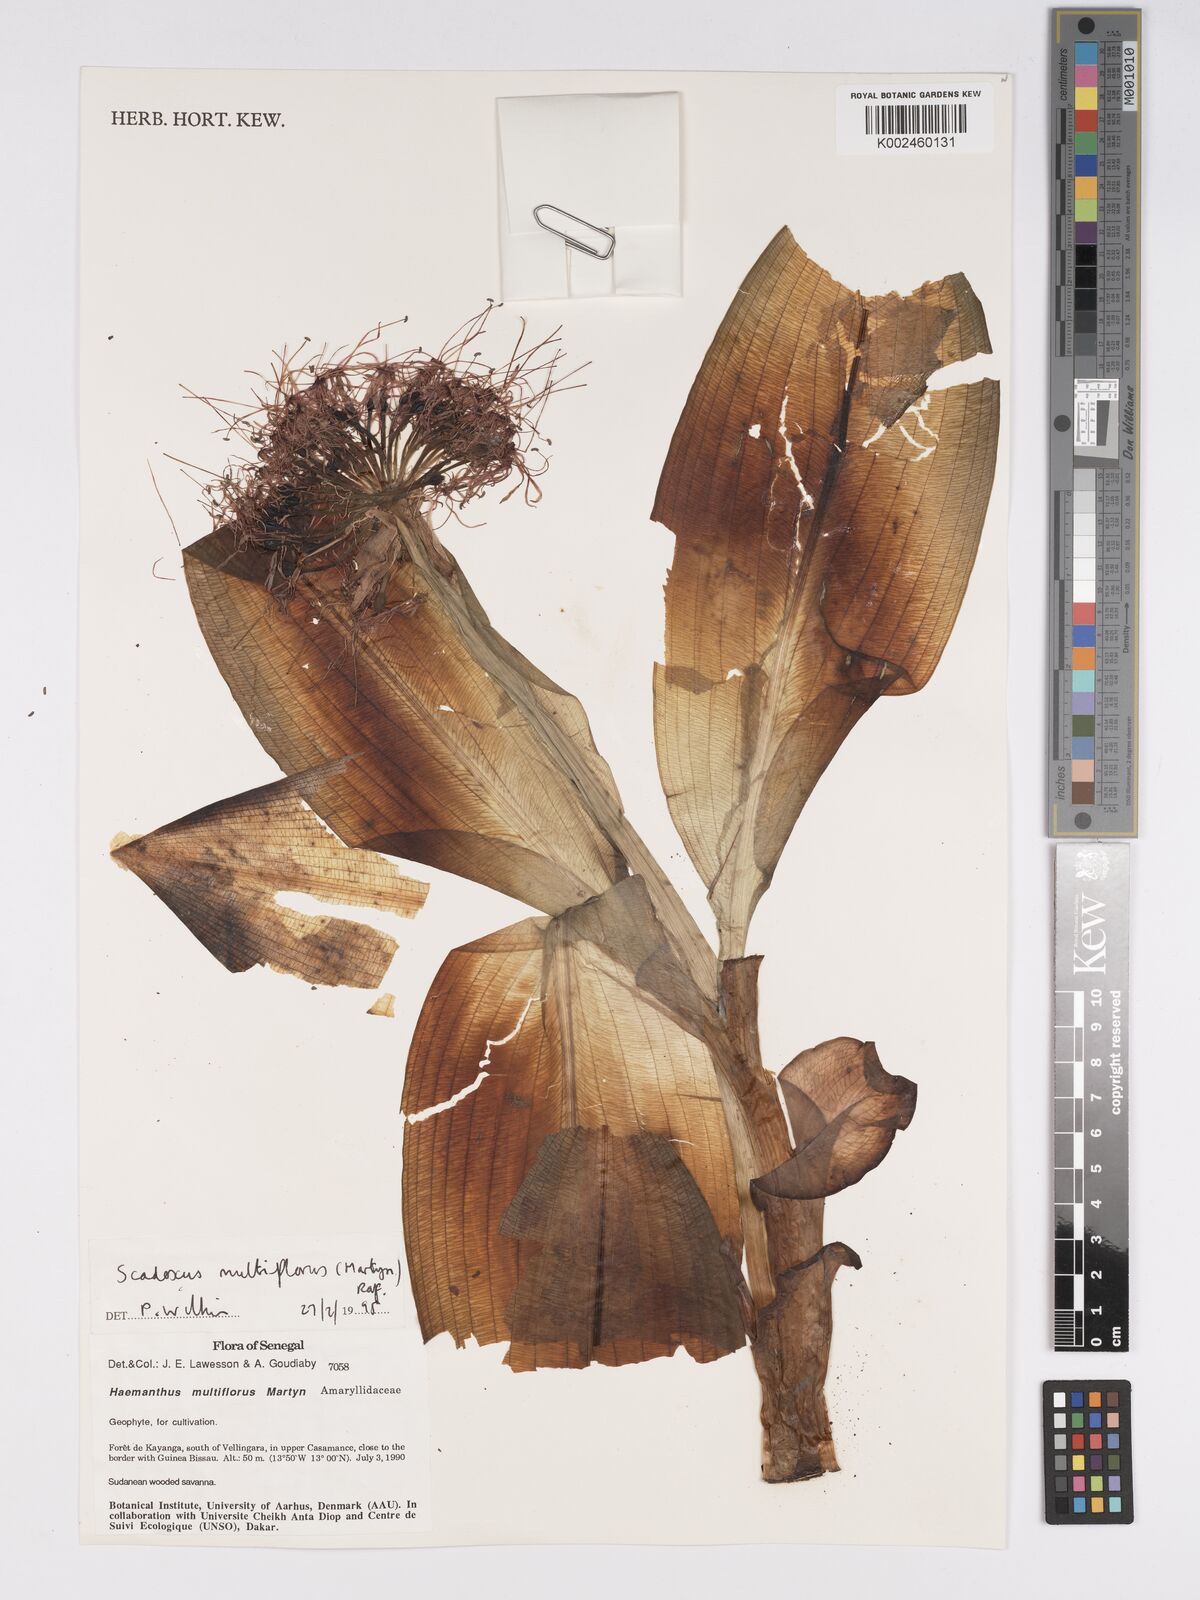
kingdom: Plantae
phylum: Tracheophyta
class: Liliopsida
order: Asparagales
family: Amaryllidaceae
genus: Scadoxus
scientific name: Scadoxus multiflorus
